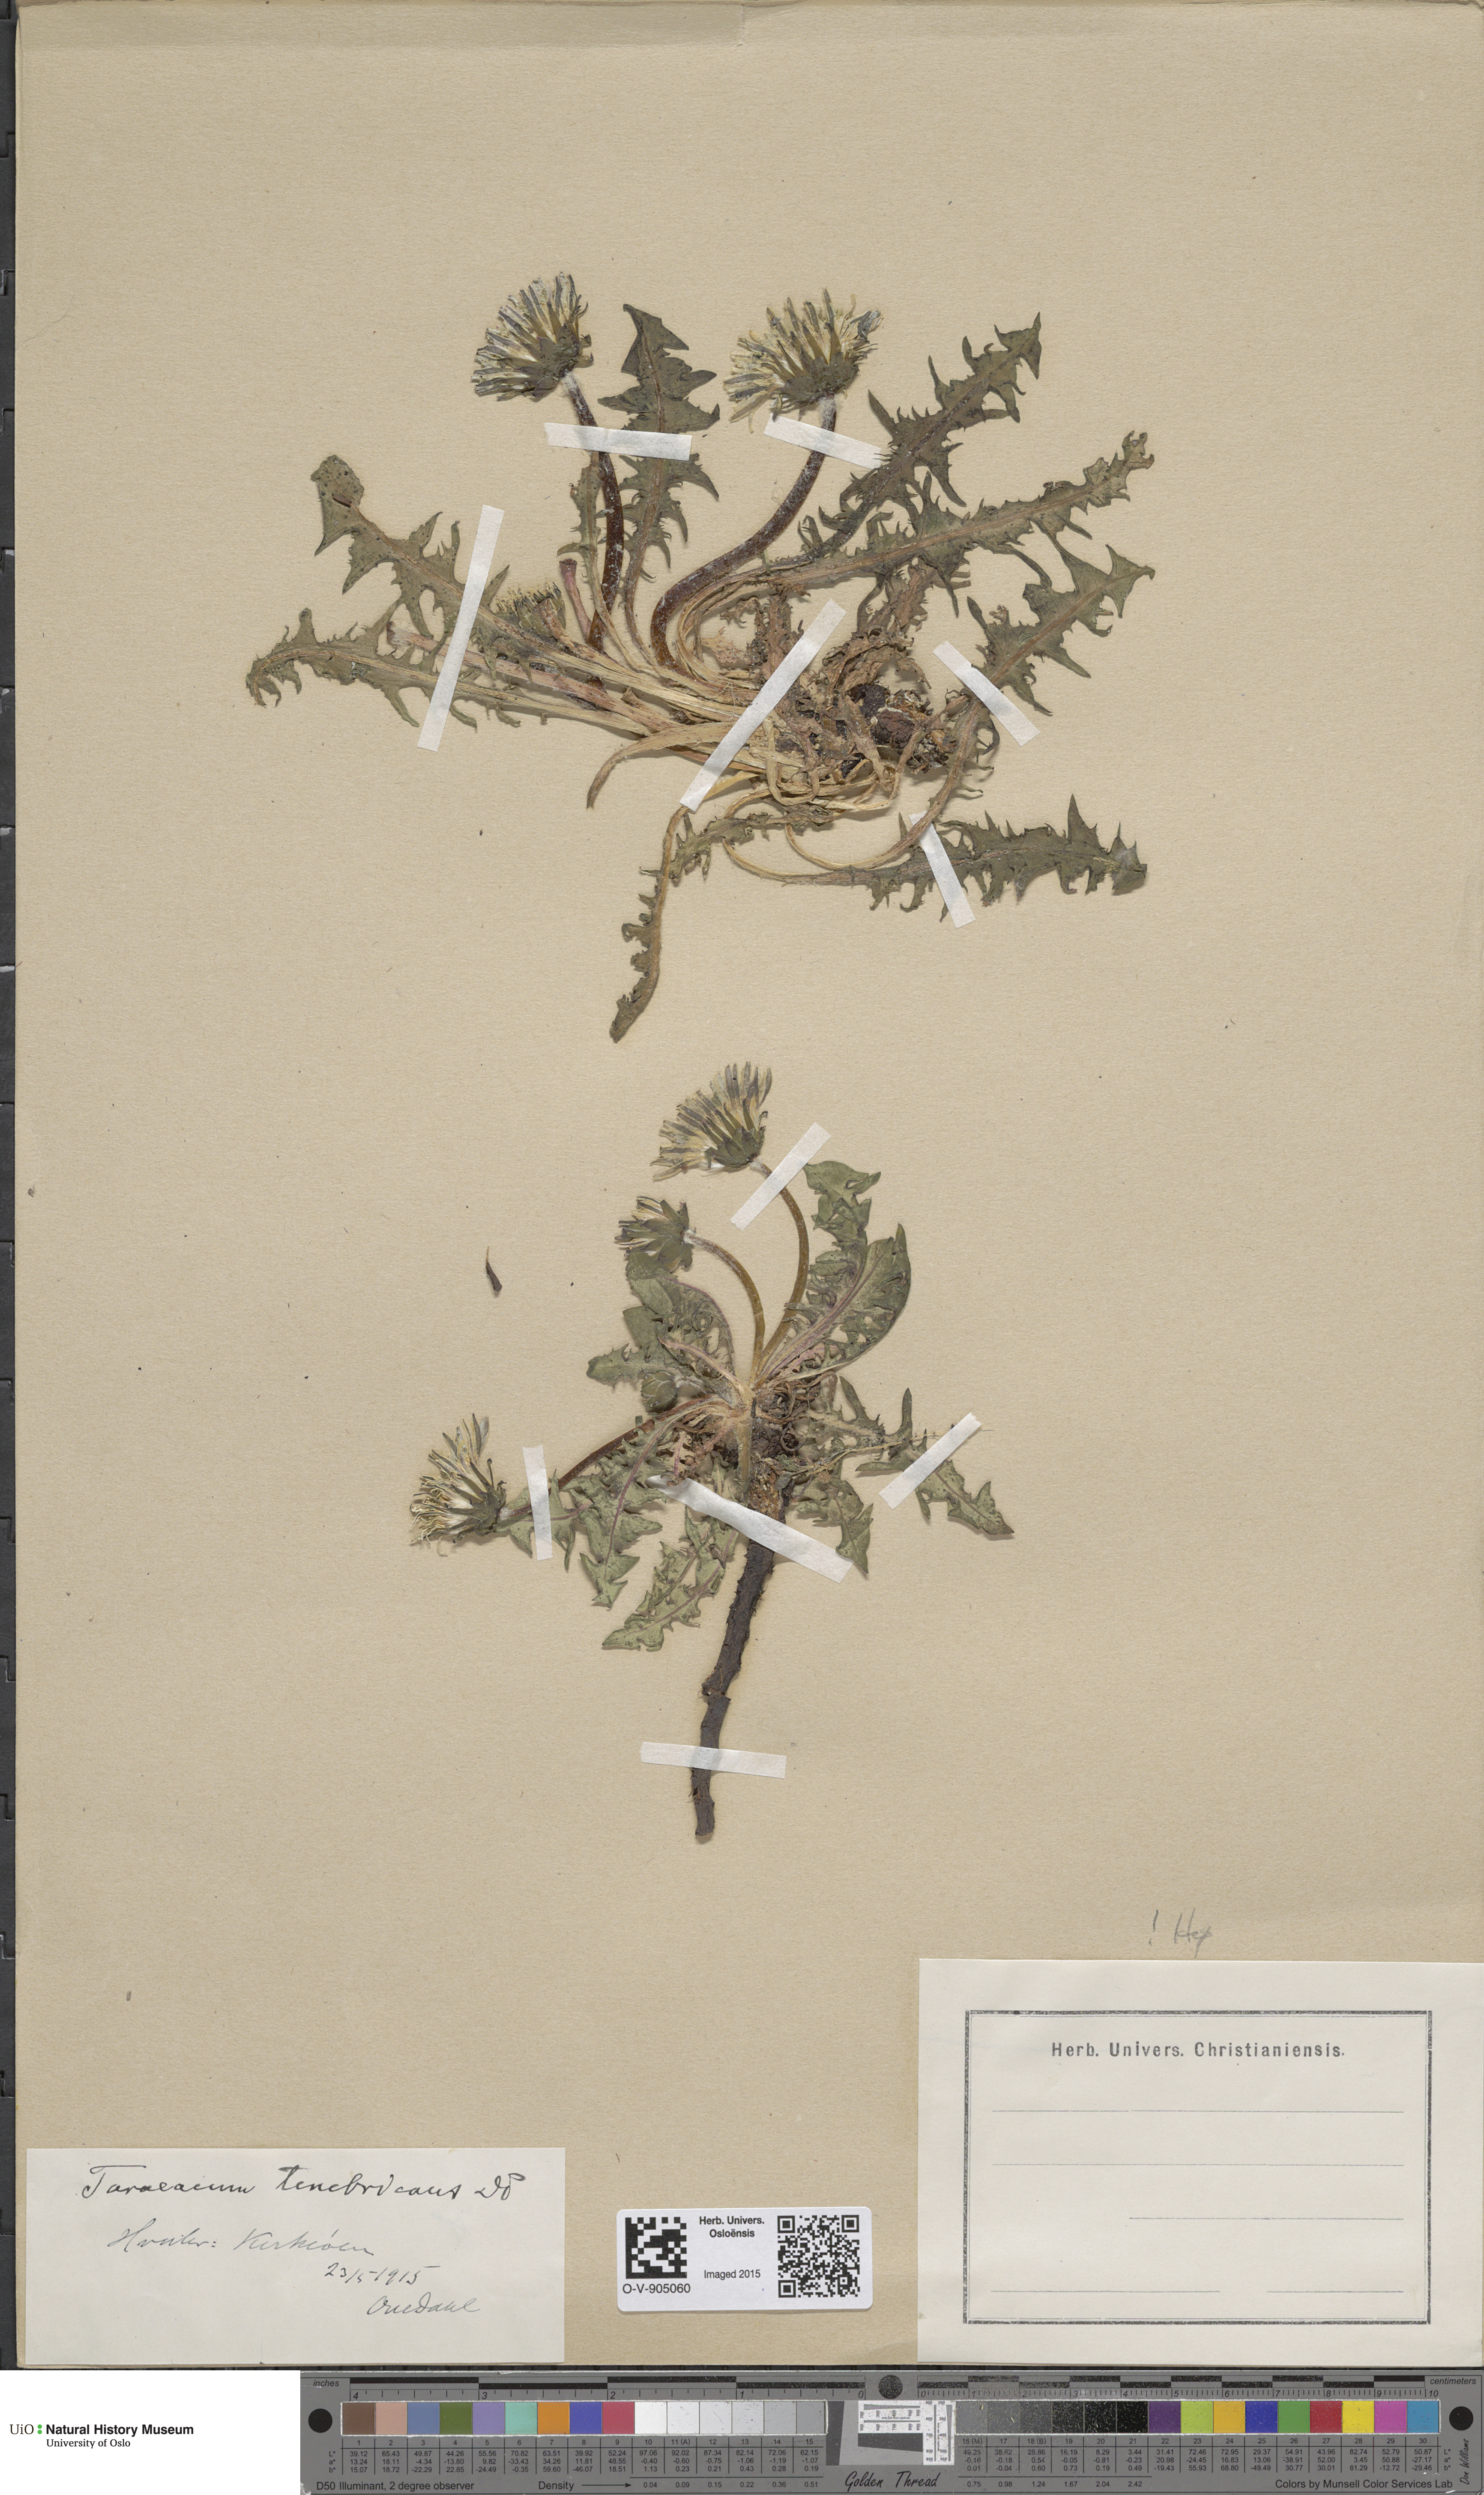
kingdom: Plantae
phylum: Tracheophyta
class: Magnoliopsida
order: Asterales
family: Asteraceae
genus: Taraxacum
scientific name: Taraxacum tenebricans
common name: Shiny-leaved dandelion
